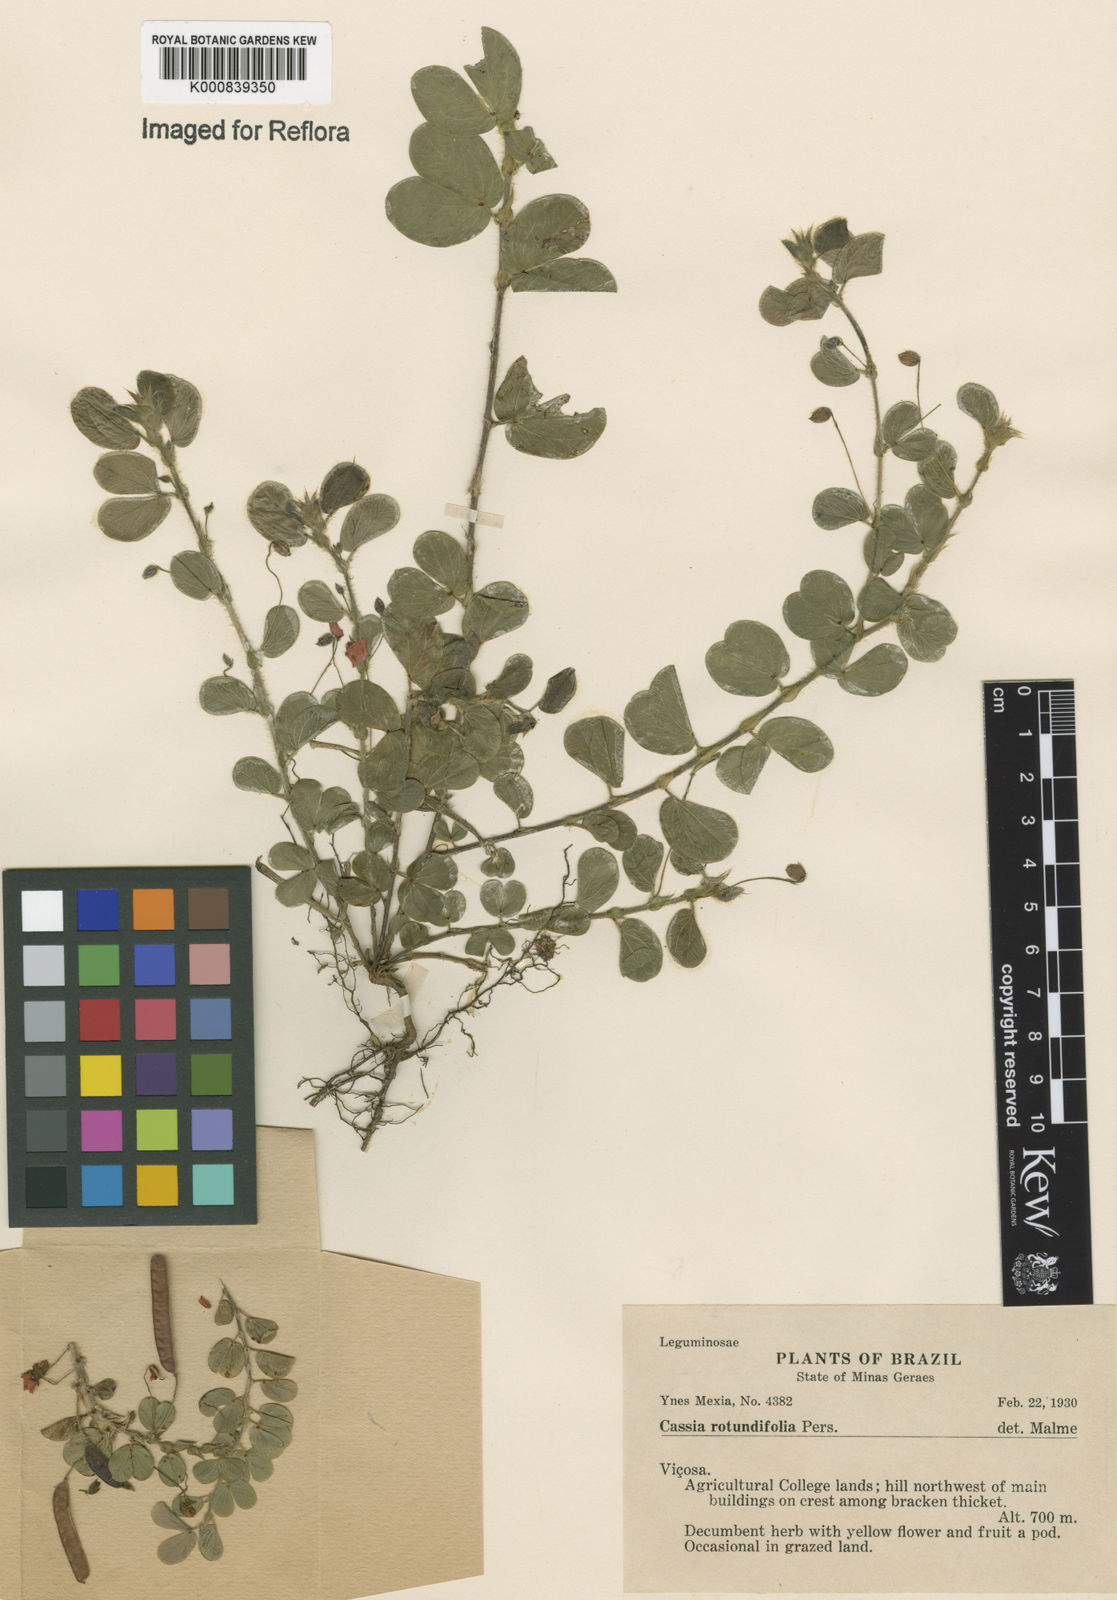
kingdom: Plantae
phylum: Tracheophyta
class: Magnoliopsida
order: Fabales
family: Fabaceae
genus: Chamaecrista
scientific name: Chamaecrista rotundifolia
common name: Round-leaf cassia
